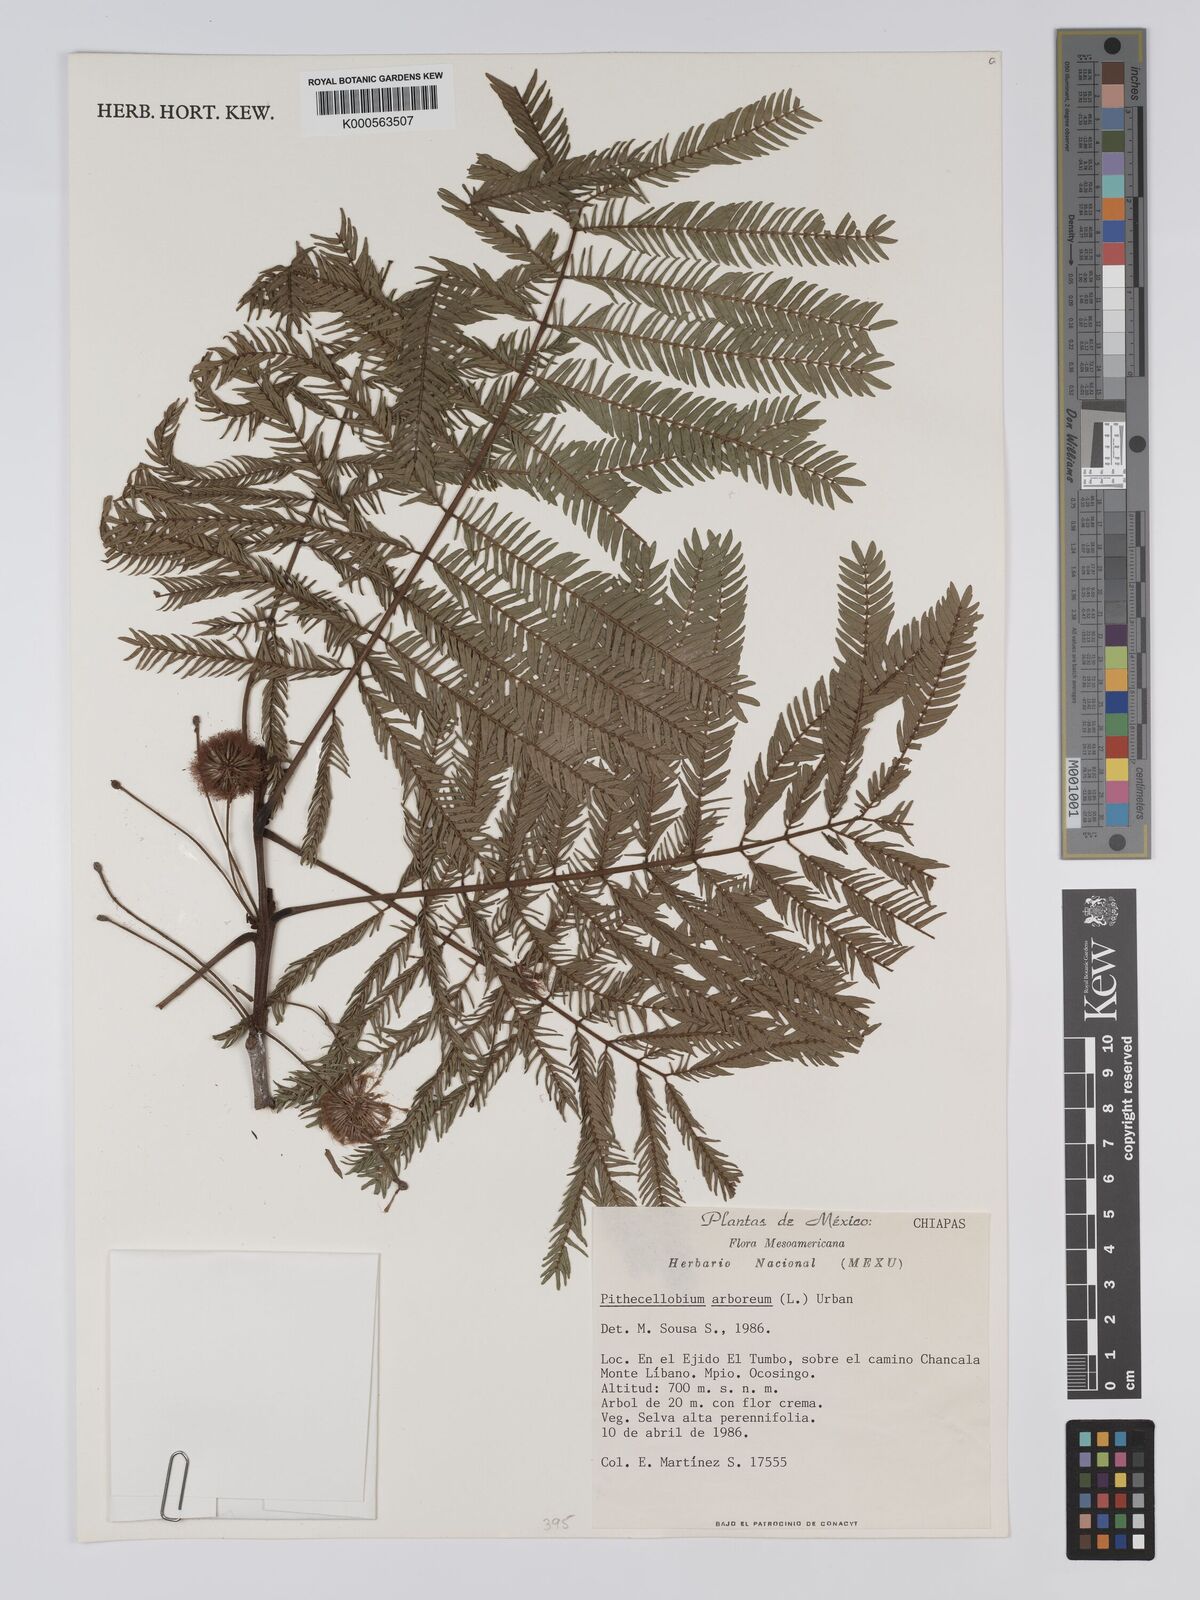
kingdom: Plantae
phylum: Tracheophyta
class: Magnoliopsida
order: Fabales
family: Fabaceae
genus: Cojoba
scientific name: Cojoba arborea
